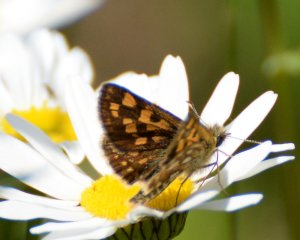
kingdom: Animalia
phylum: Arthropoda
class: Insecta
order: Lepidoptera
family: Hesperiidae
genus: Carterocephalus
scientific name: Carterocephalus palaemon
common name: Chequered Skipper
